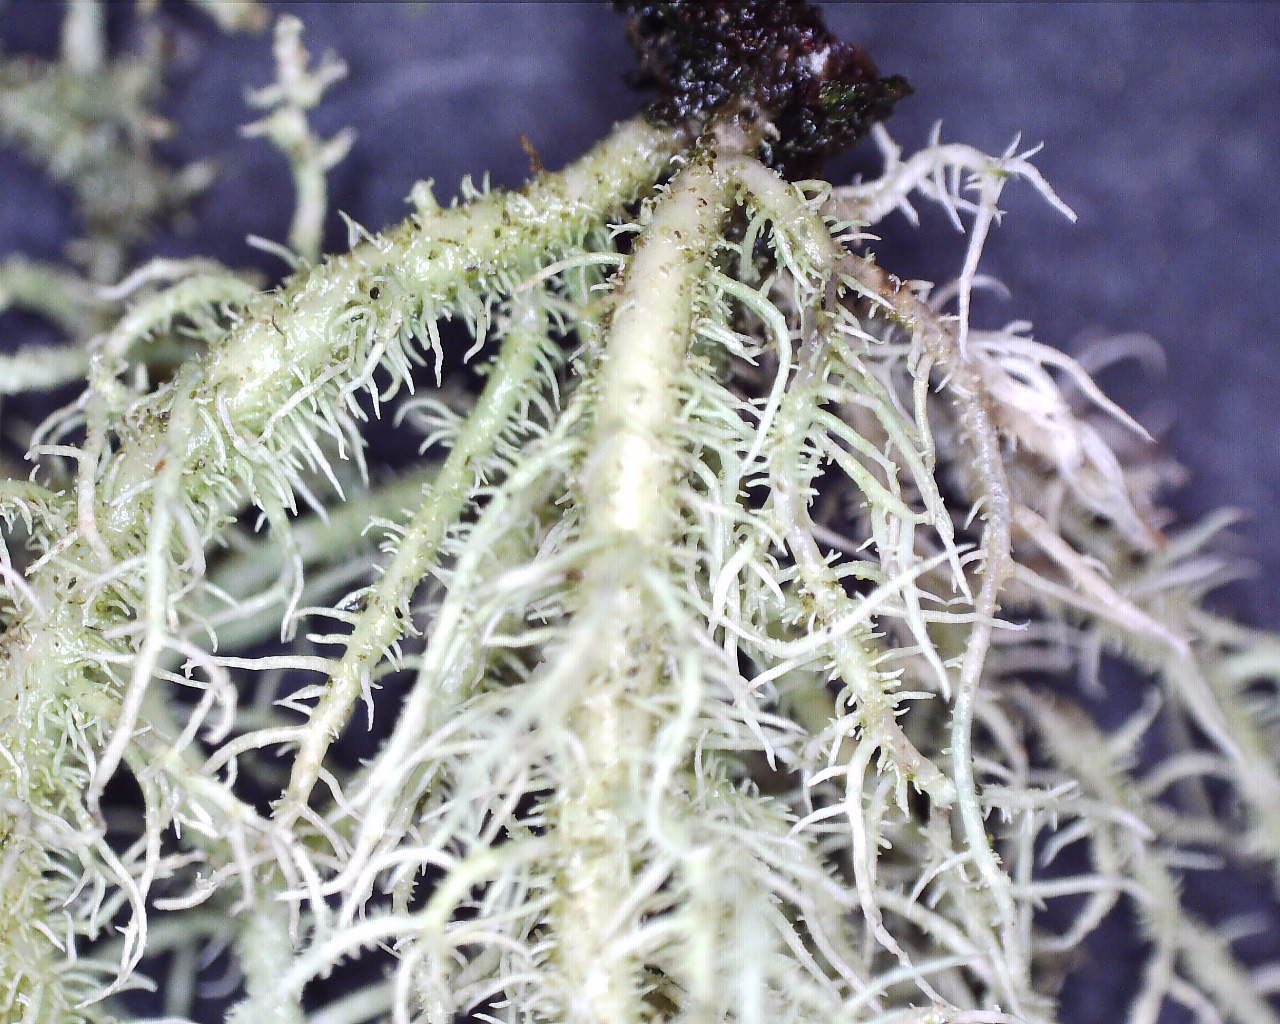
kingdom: Fungi
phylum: Ascomycota
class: Lecanoromycetes
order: Lecanorales
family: Parmeliaceae
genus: Usnea
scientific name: Usnea hirta
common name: liden skæglav
